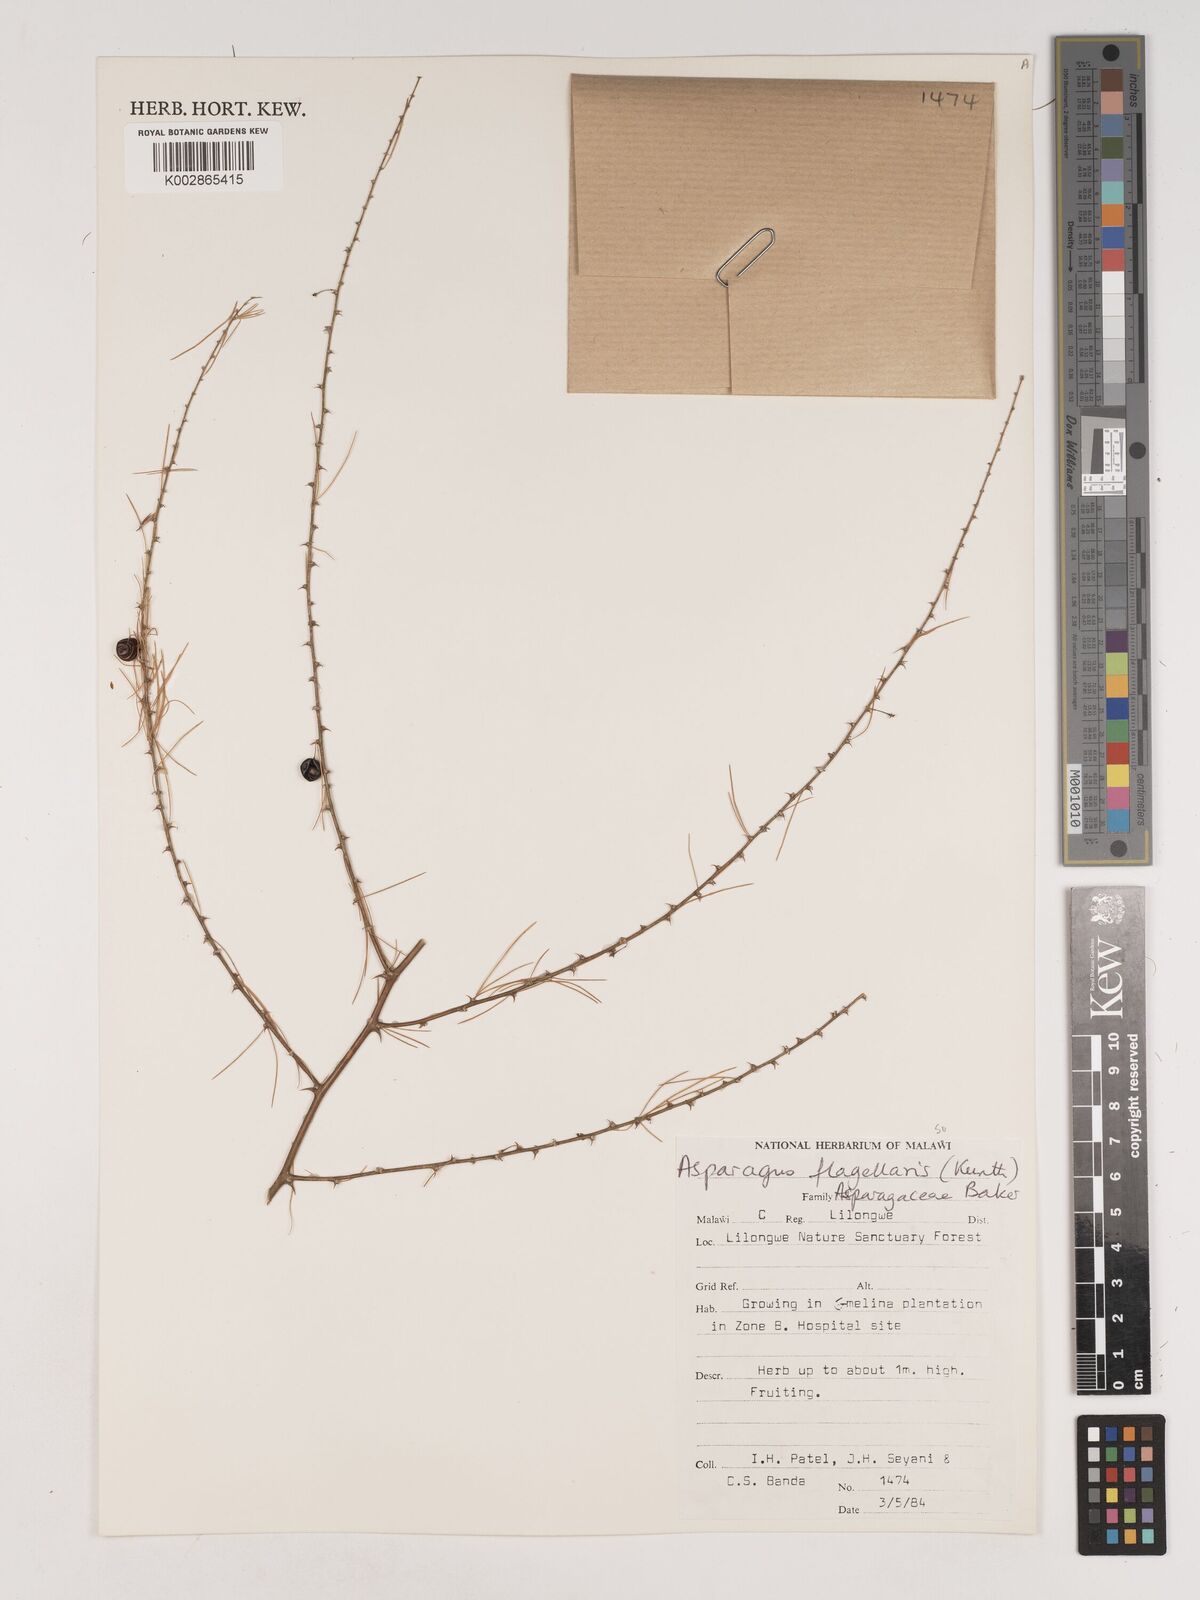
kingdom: Plantae
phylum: Tracheophyta
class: Liliopsida
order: Asparagales
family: Asparagaceae
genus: Asparagus
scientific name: Asparagus flagellaris
